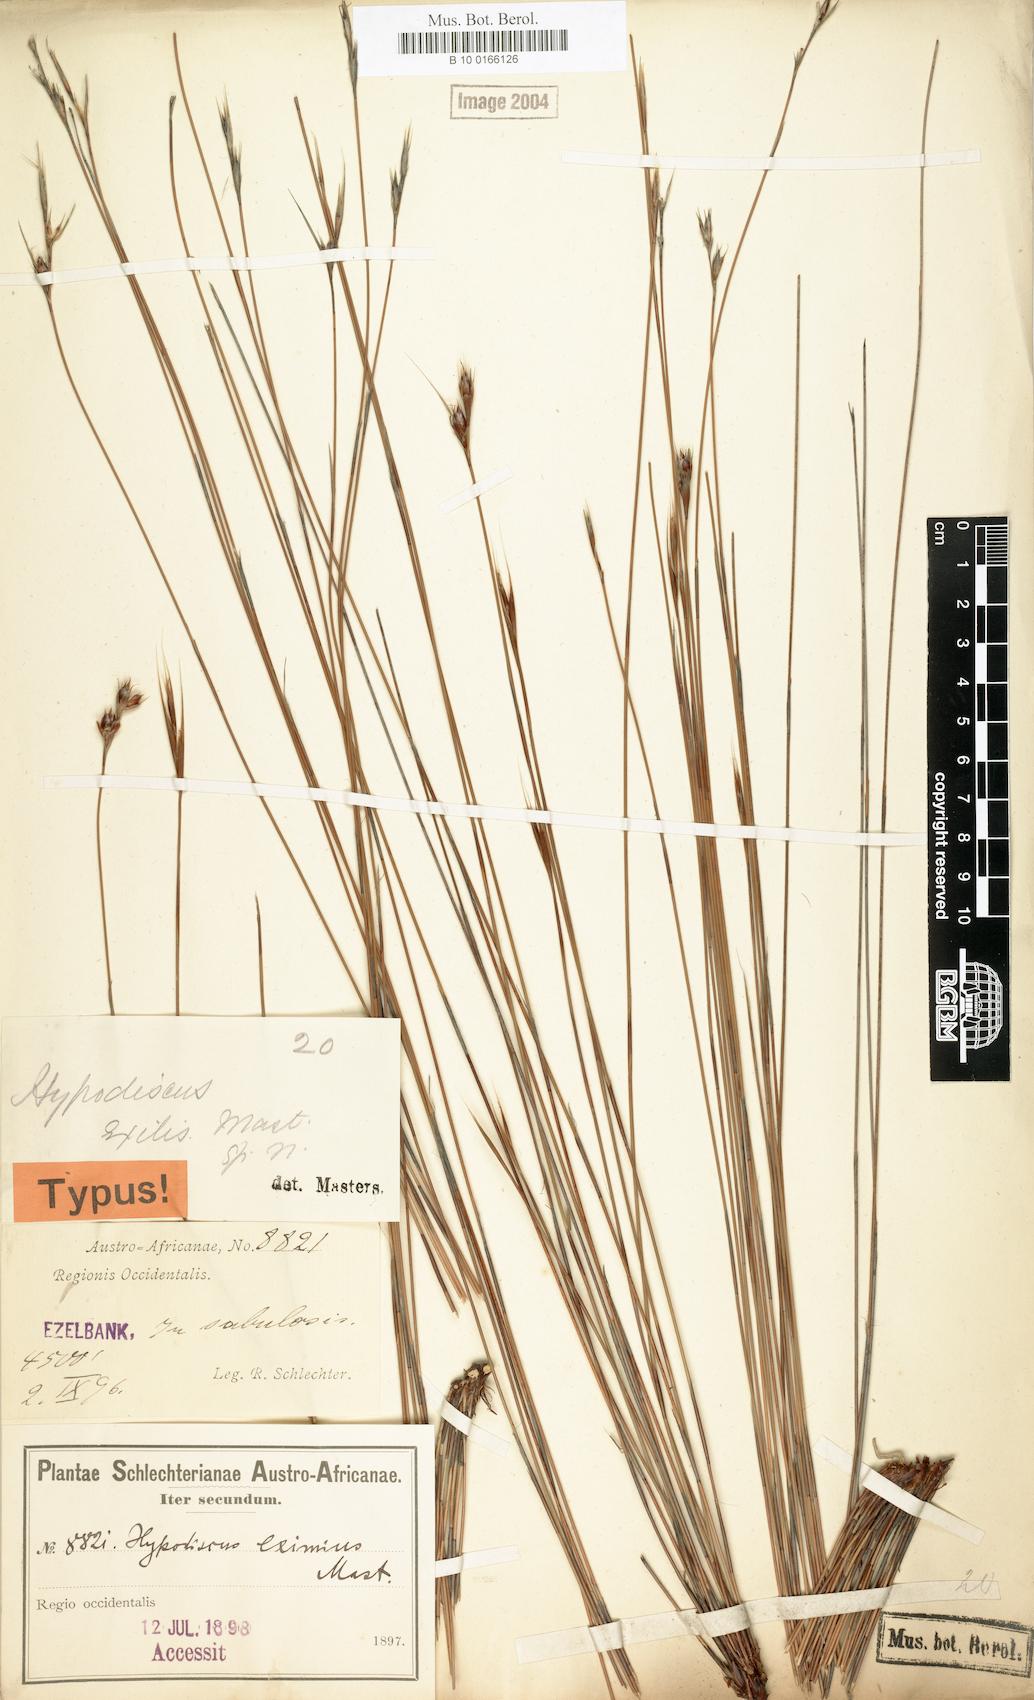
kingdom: Plantae
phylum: Tracheophyta
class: Liliopsida
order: Poales
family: Restionaceae
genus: Hypodiscus
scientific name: Hypodiscus neesii
